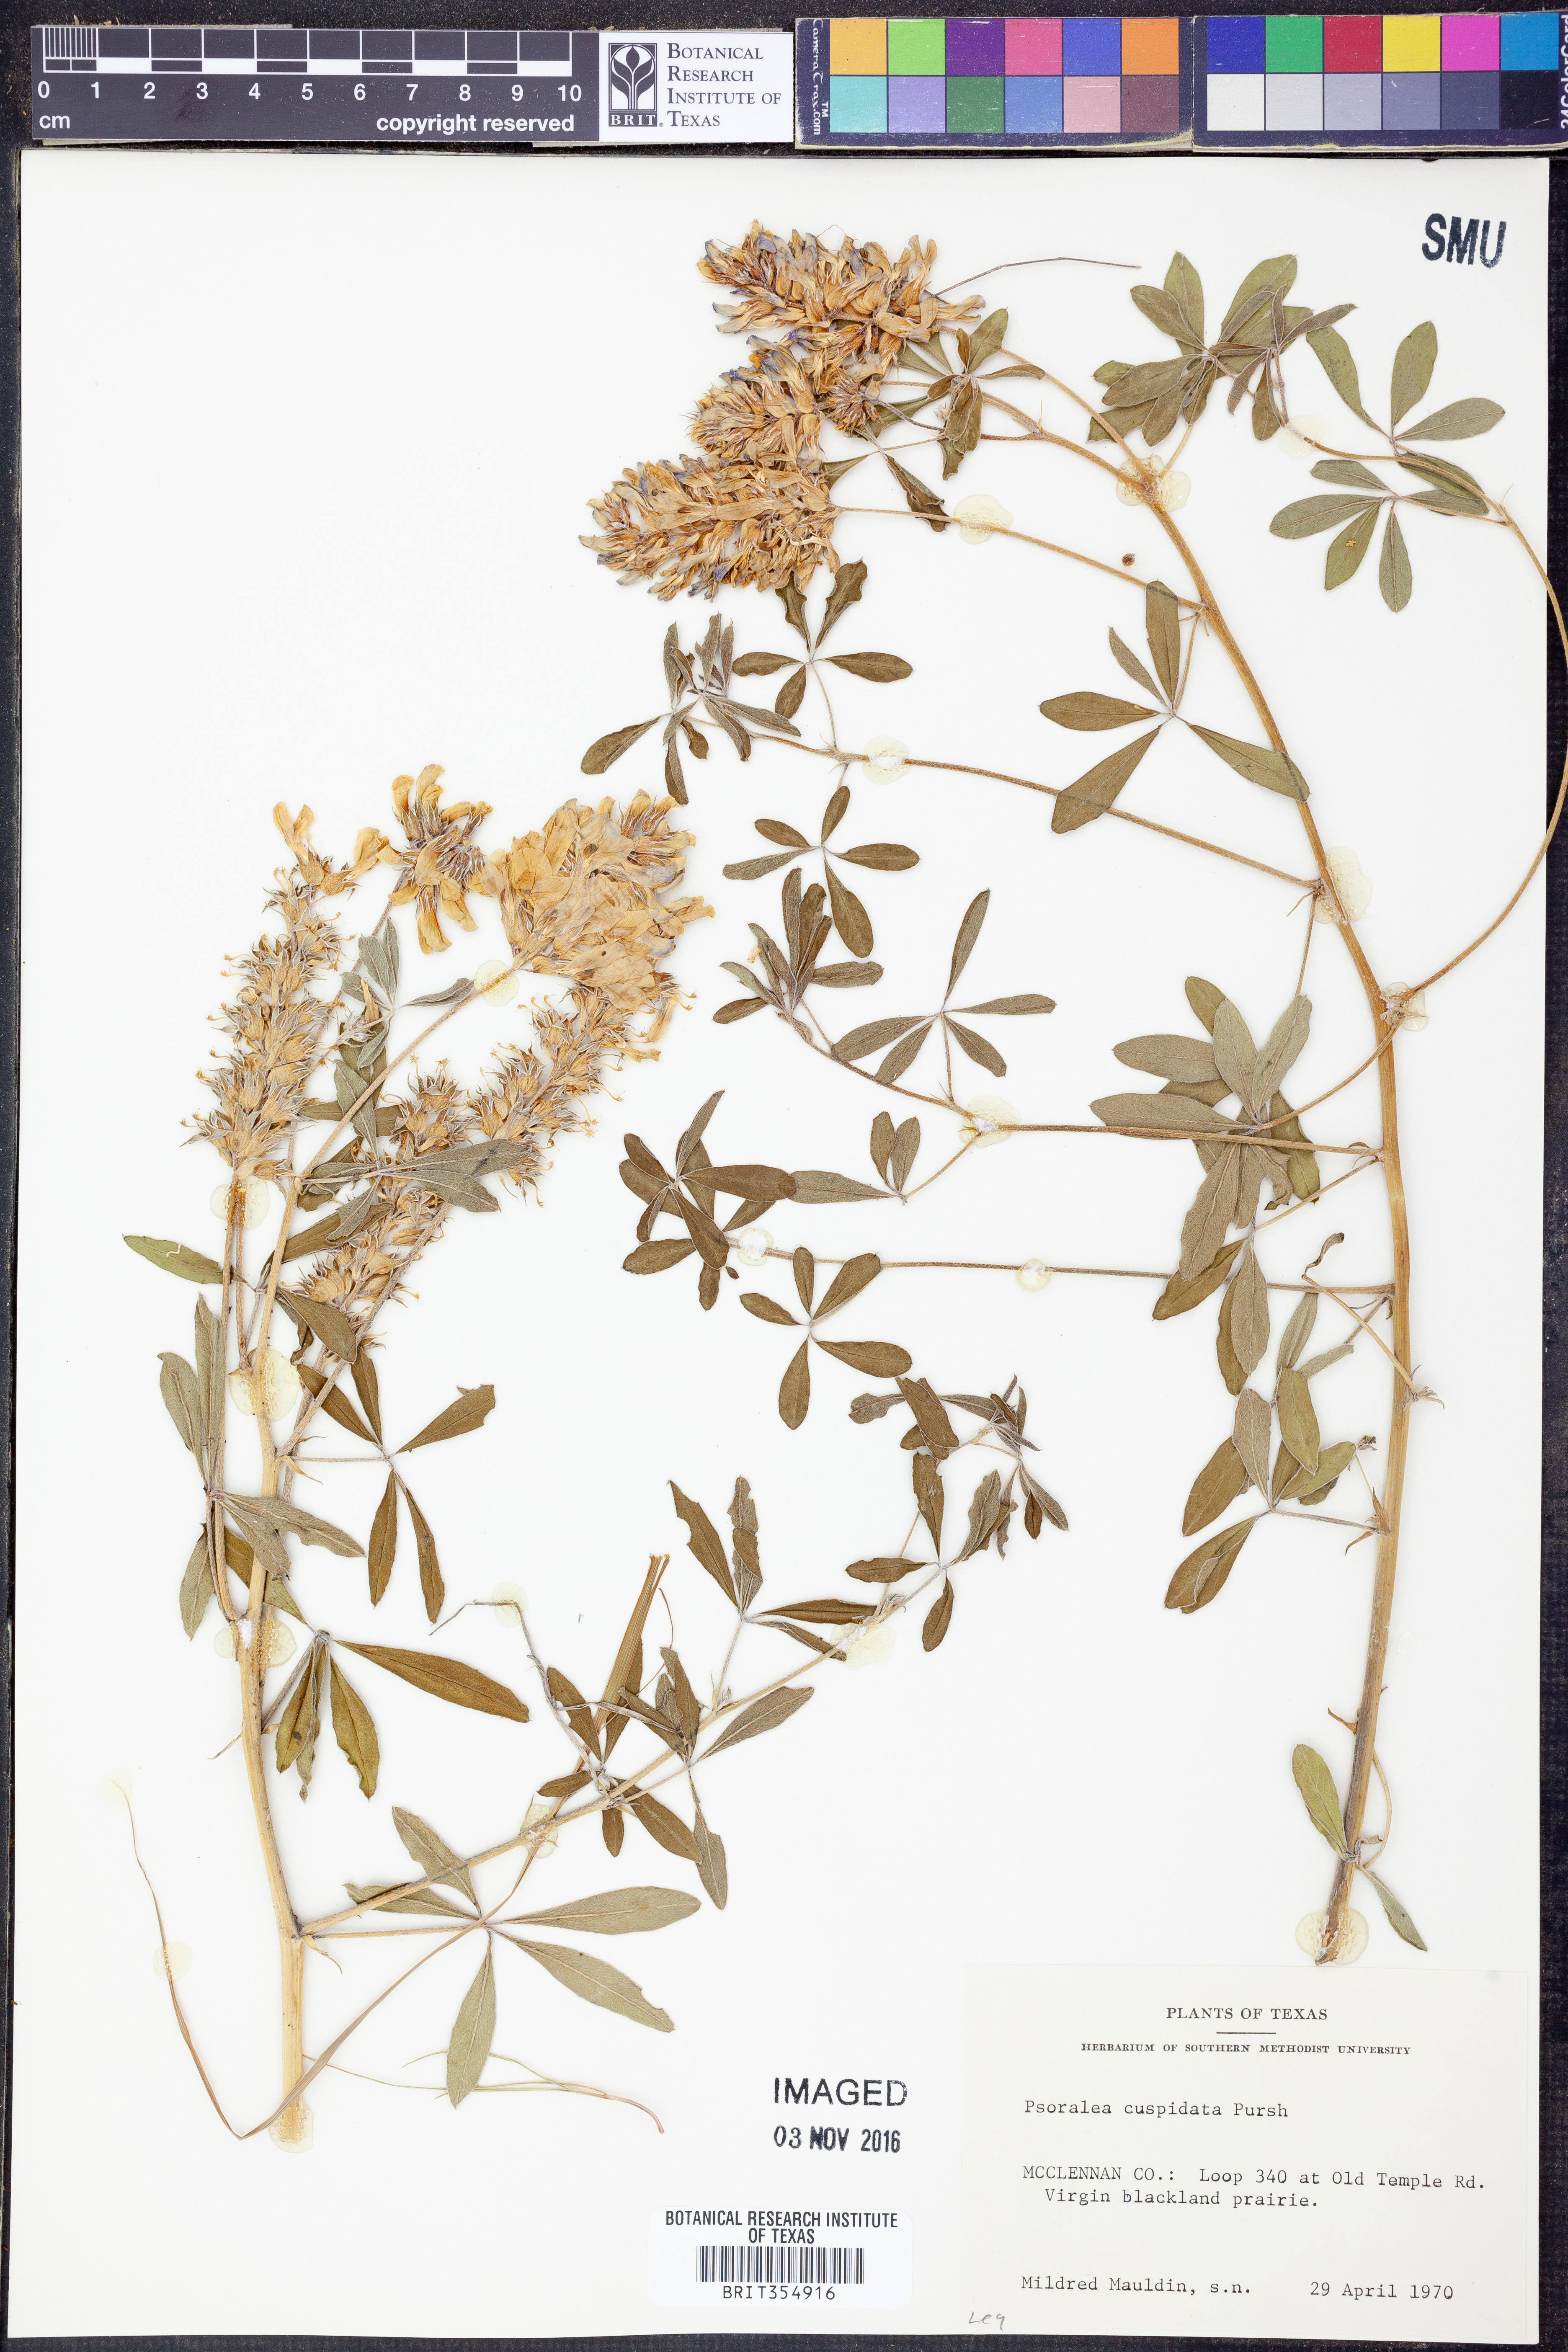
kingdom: Plantae
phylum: Tracheophyta
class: Magnoliopsida
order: Fabales
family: Fabaceae
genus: Pediomelum
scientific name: Pediomelum cuspidatum
